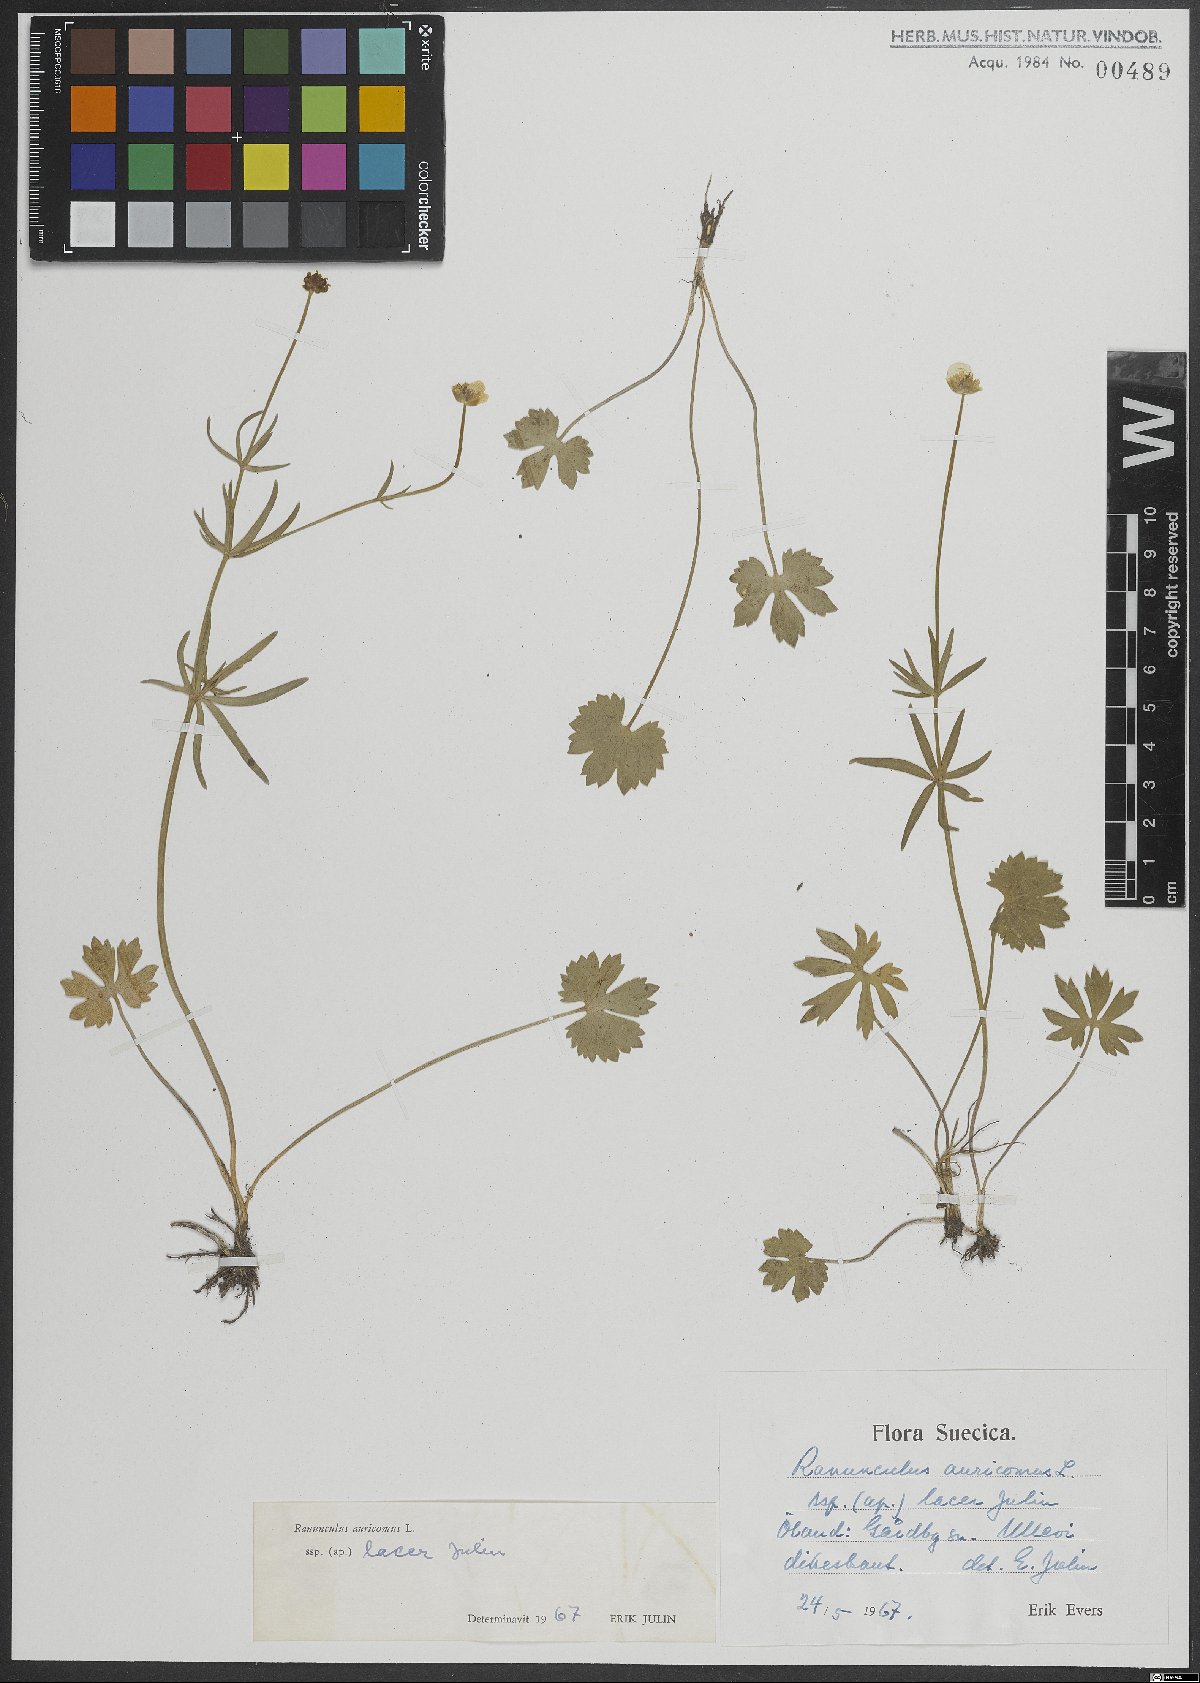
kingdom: Plantae
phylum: Tracheophyta
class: Magnoliopsida
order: Ranunculales
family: Ranunculaceae
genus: Ranunculus
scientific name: Ranunculus auricomus
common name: Goldilocks buttercup
